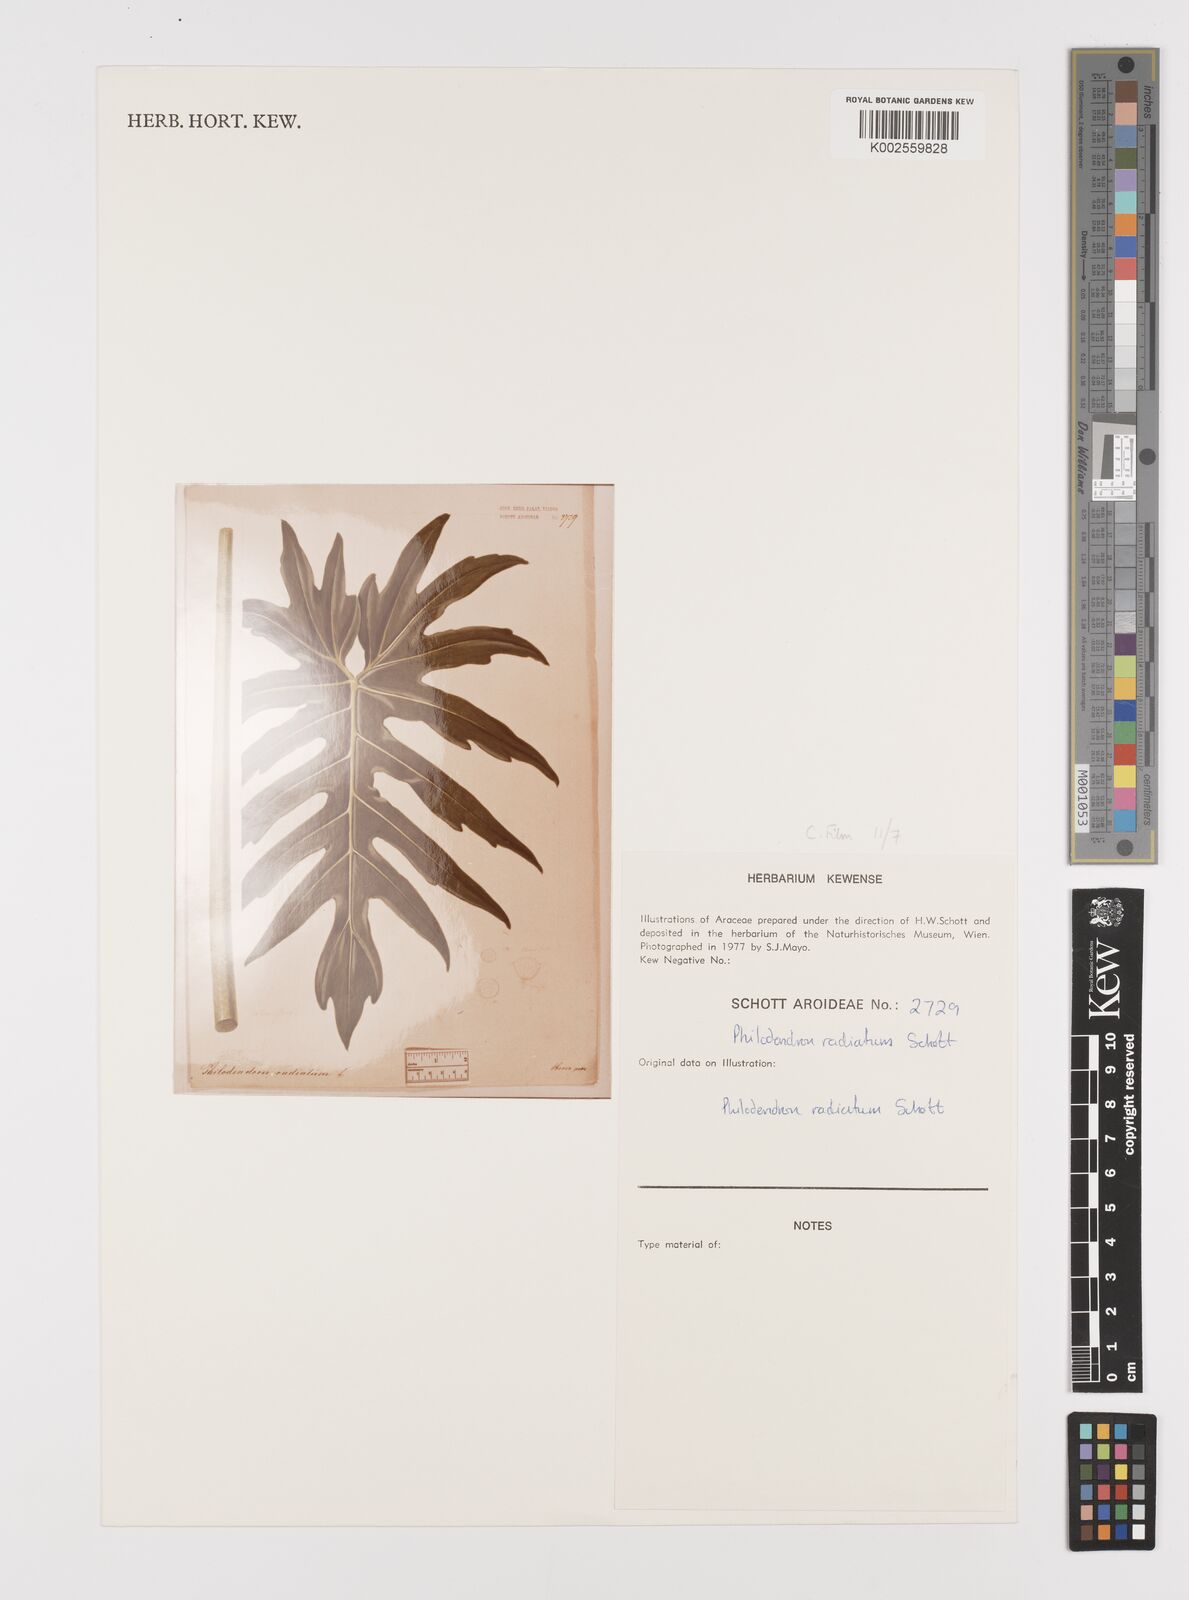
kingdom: Plantae
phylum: Tracheophyta
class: Liliopsida
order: Alismatales
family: Araceae
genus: Philodendron
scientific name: Philodendron radiatum
